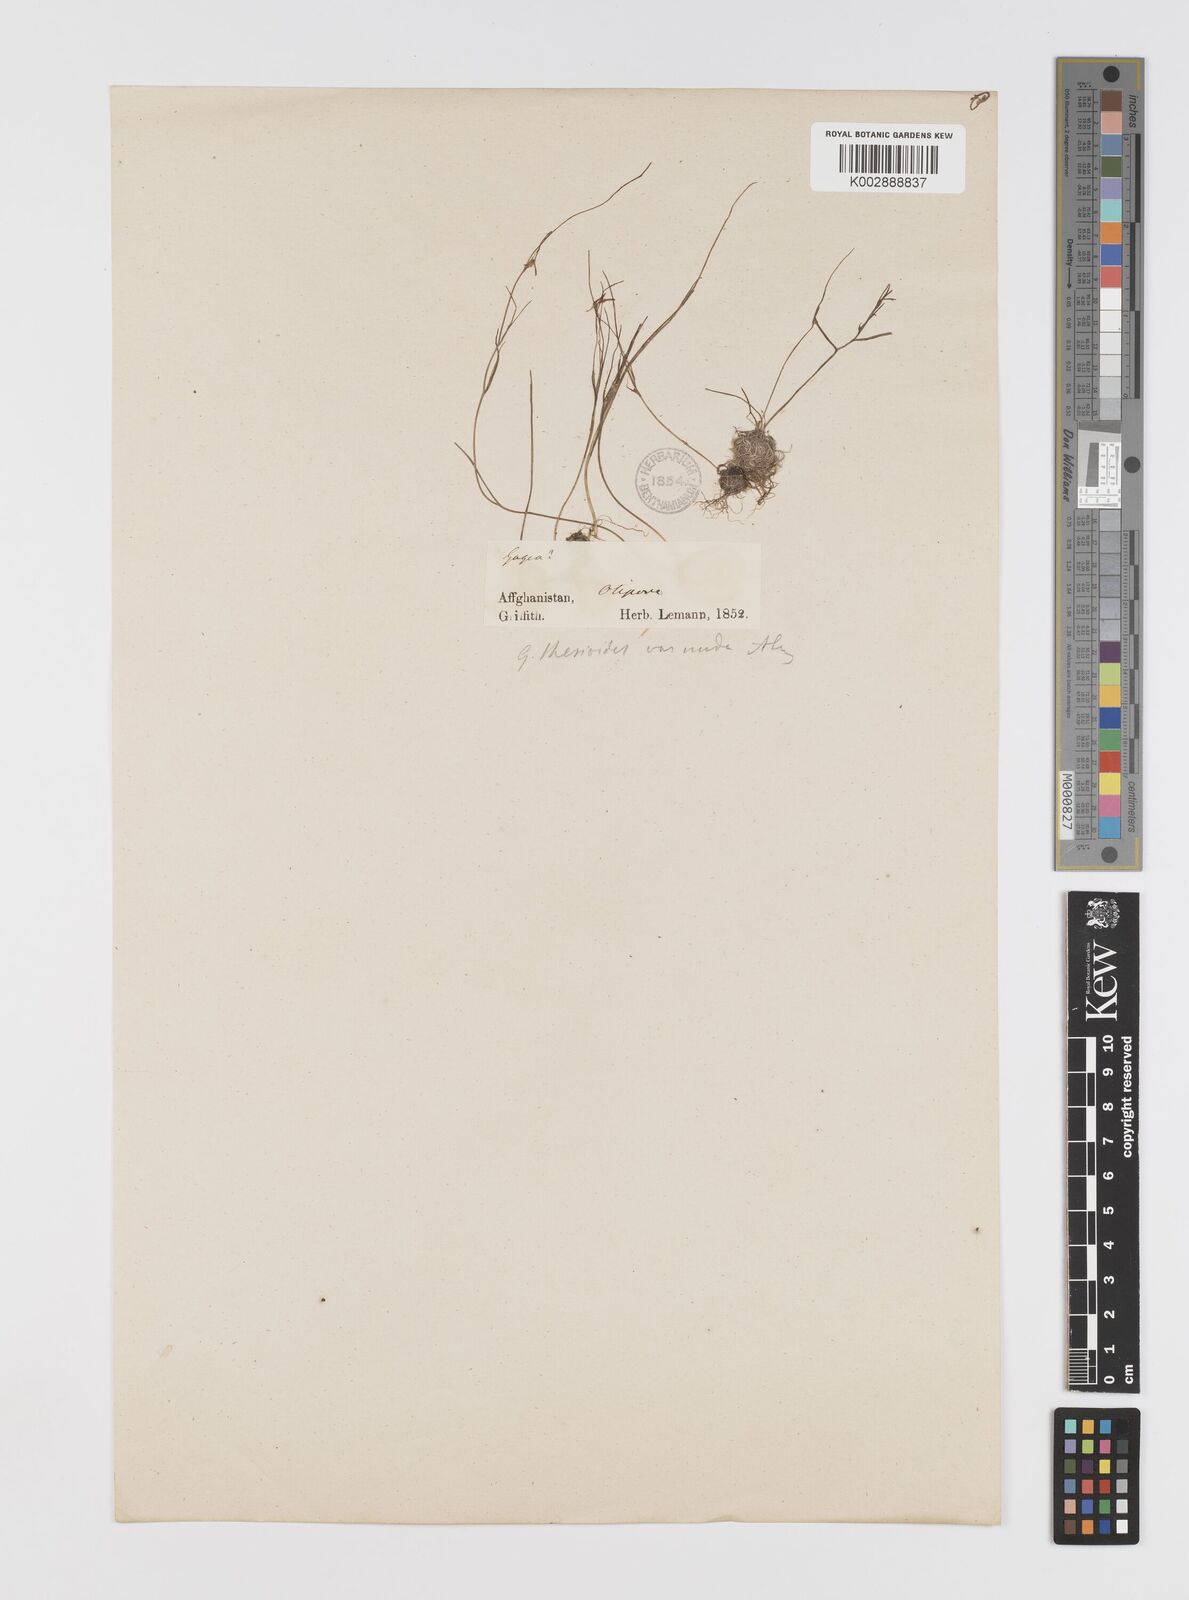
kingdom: Plantae
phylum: Tracheophyta
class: Liliopsida
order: Liliales
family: Liliaceae
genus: Gagea
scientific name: Gagea
